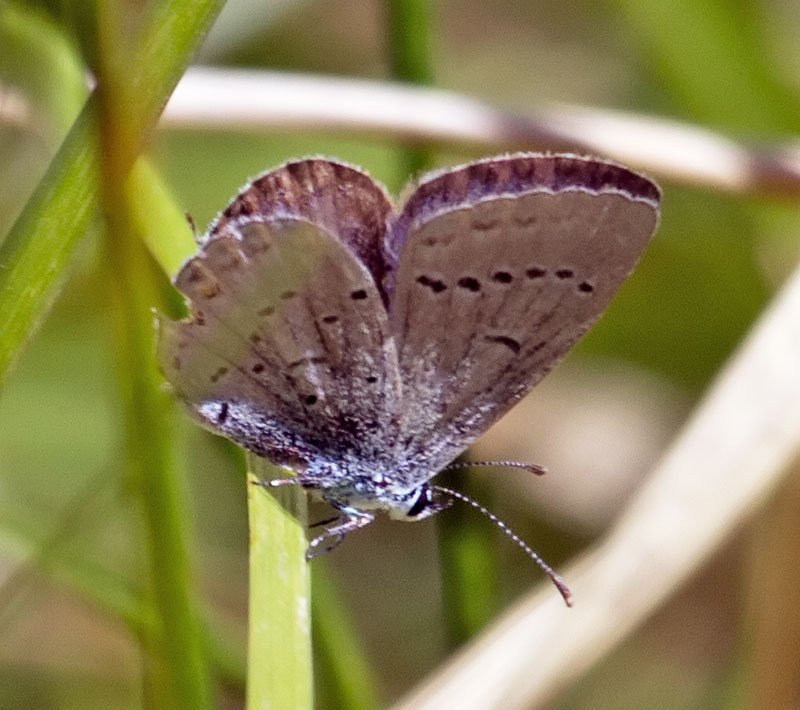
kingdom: Animalia
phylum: Arthropoda
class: Insecta
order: Lepidoptera
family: Lycaenidae
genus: Elkalyce
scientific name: Elkalyce comyntas
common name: Eastern Tailed-Blue
